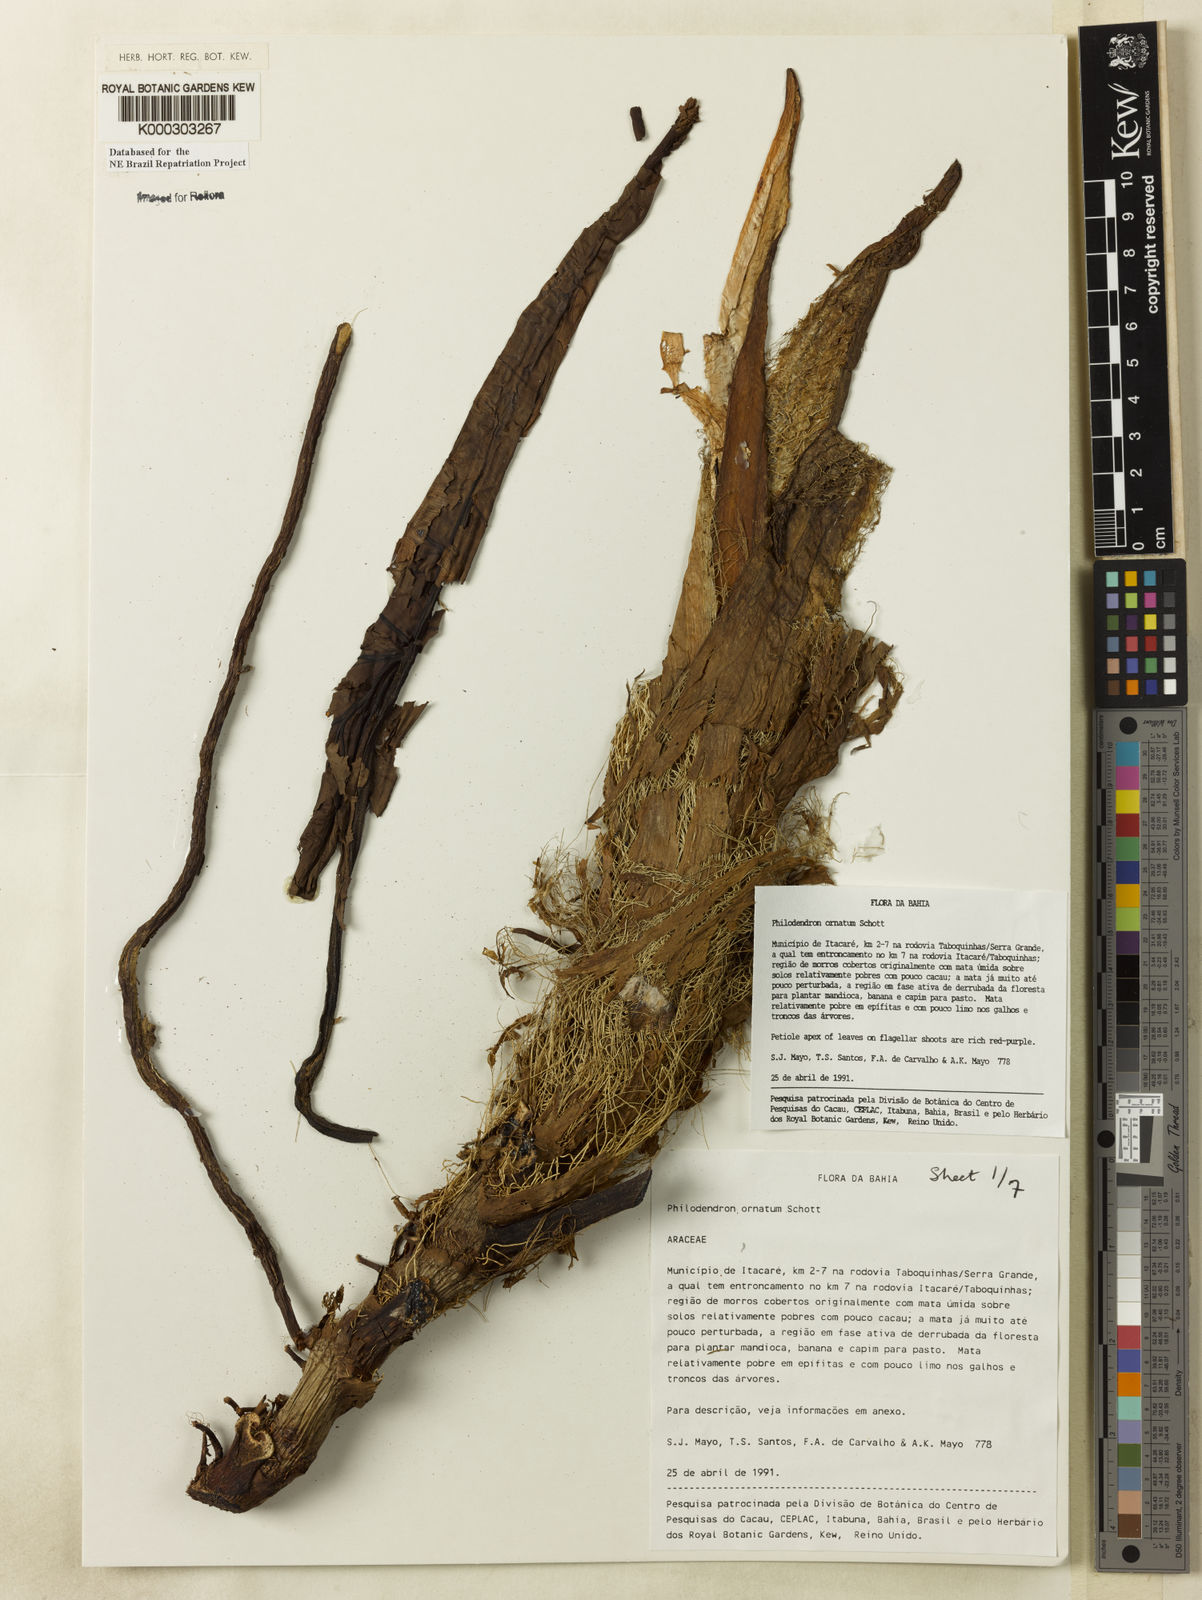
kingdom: Plantae
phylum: Tracheophyta
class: Liliopsida
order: Alismatales
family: Araceae
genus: Philodendron
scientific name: Philodendron ornatum
